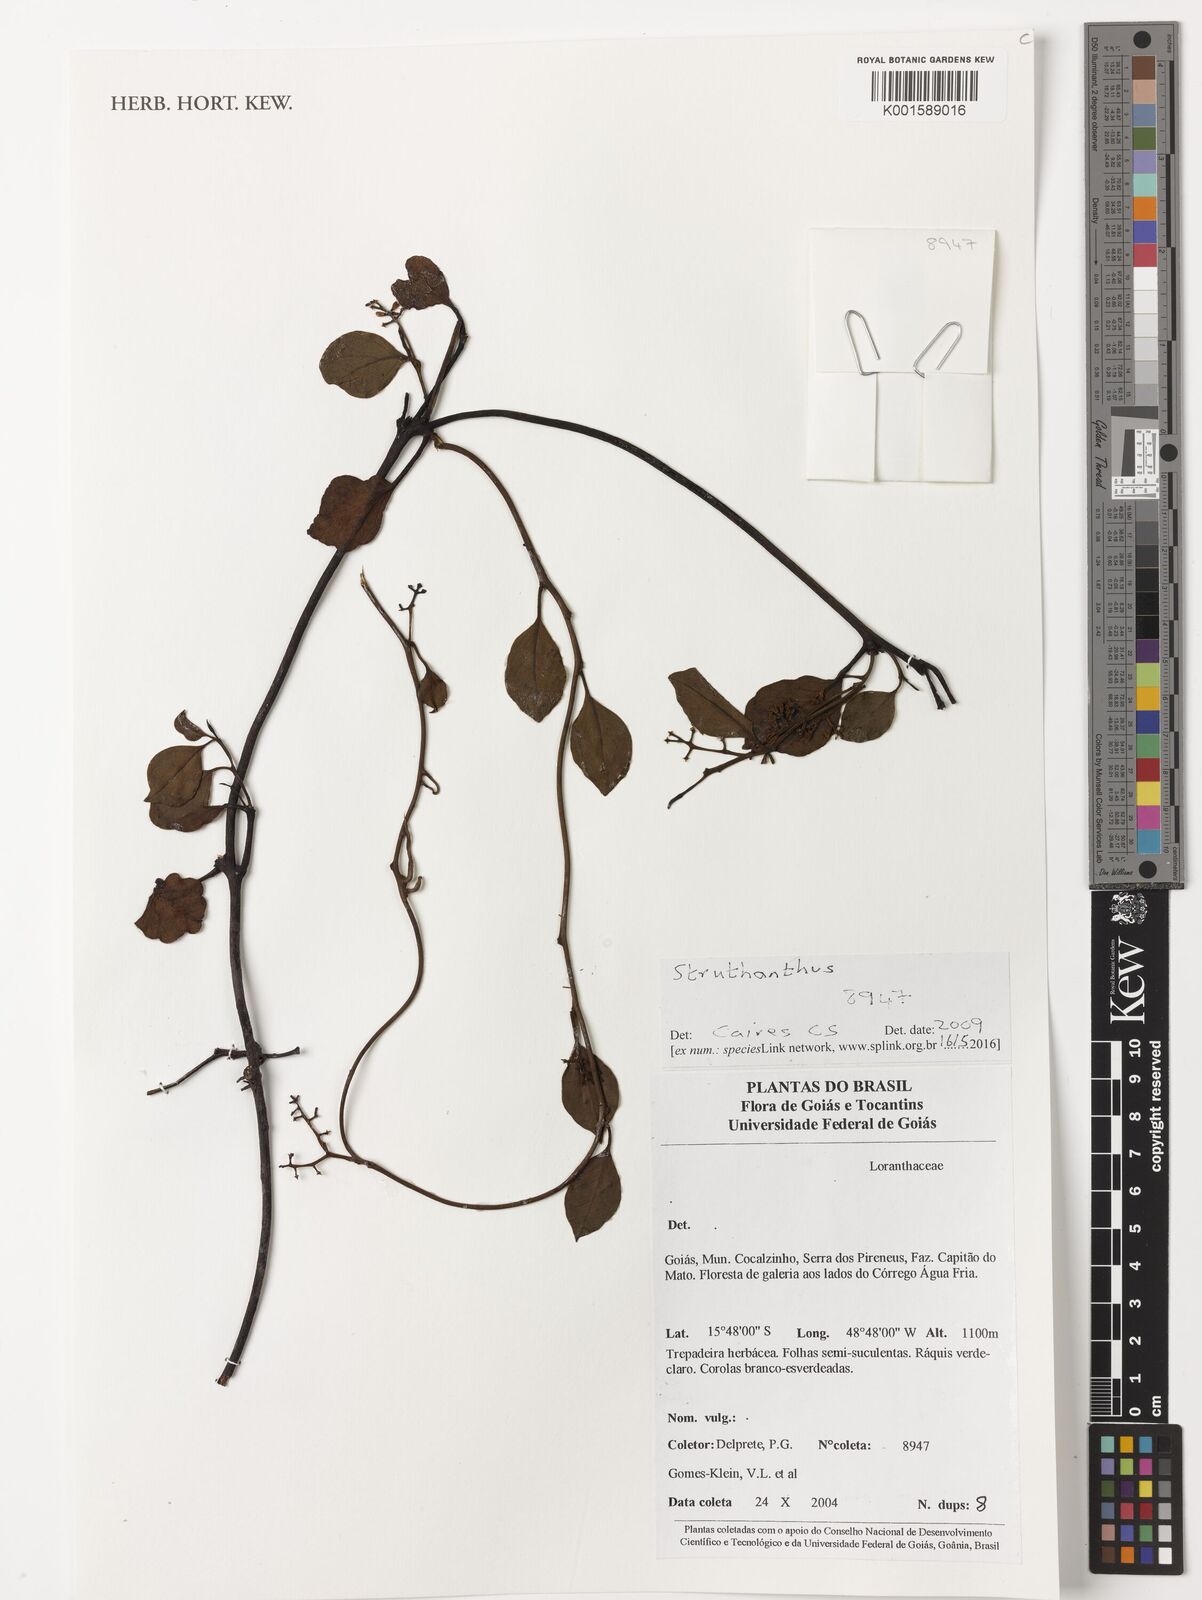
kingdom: Plantae
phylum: Tracheophyta
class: Magnoliopsida
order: Santalales
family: Loranthaceae
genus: Struthanthus
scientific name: Struthanthus
